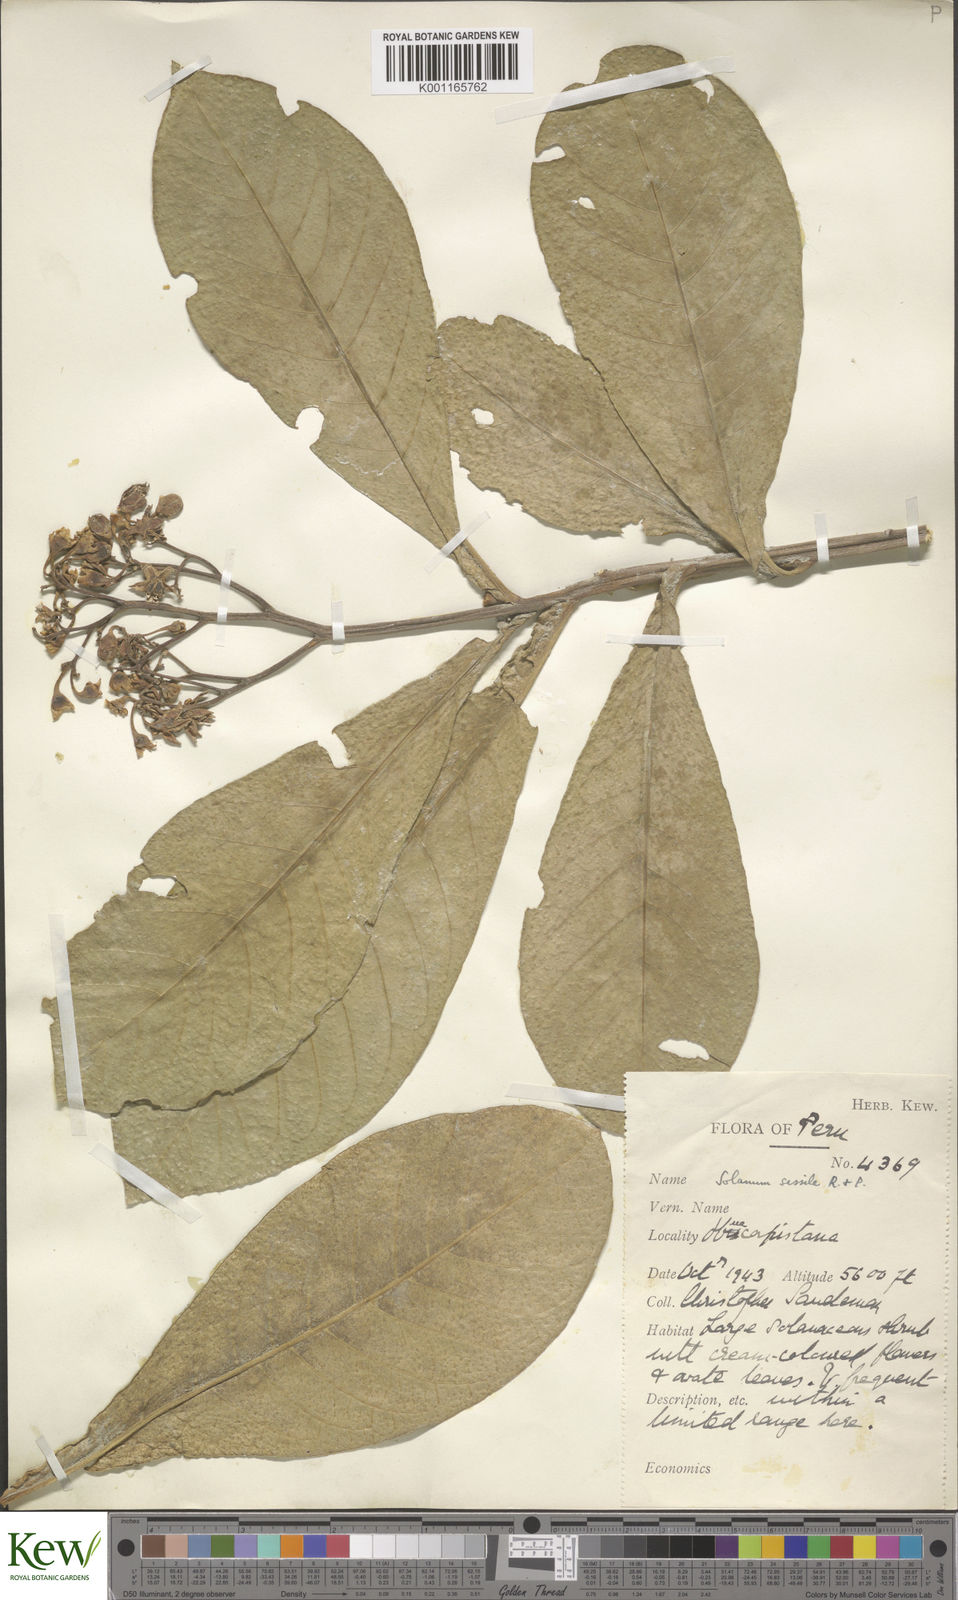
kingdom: Plantae
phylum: Tracheophyta
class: Magnoliopsida
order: Solanales
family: Solanaceae
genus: Solanum
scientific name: Solanum sessile
